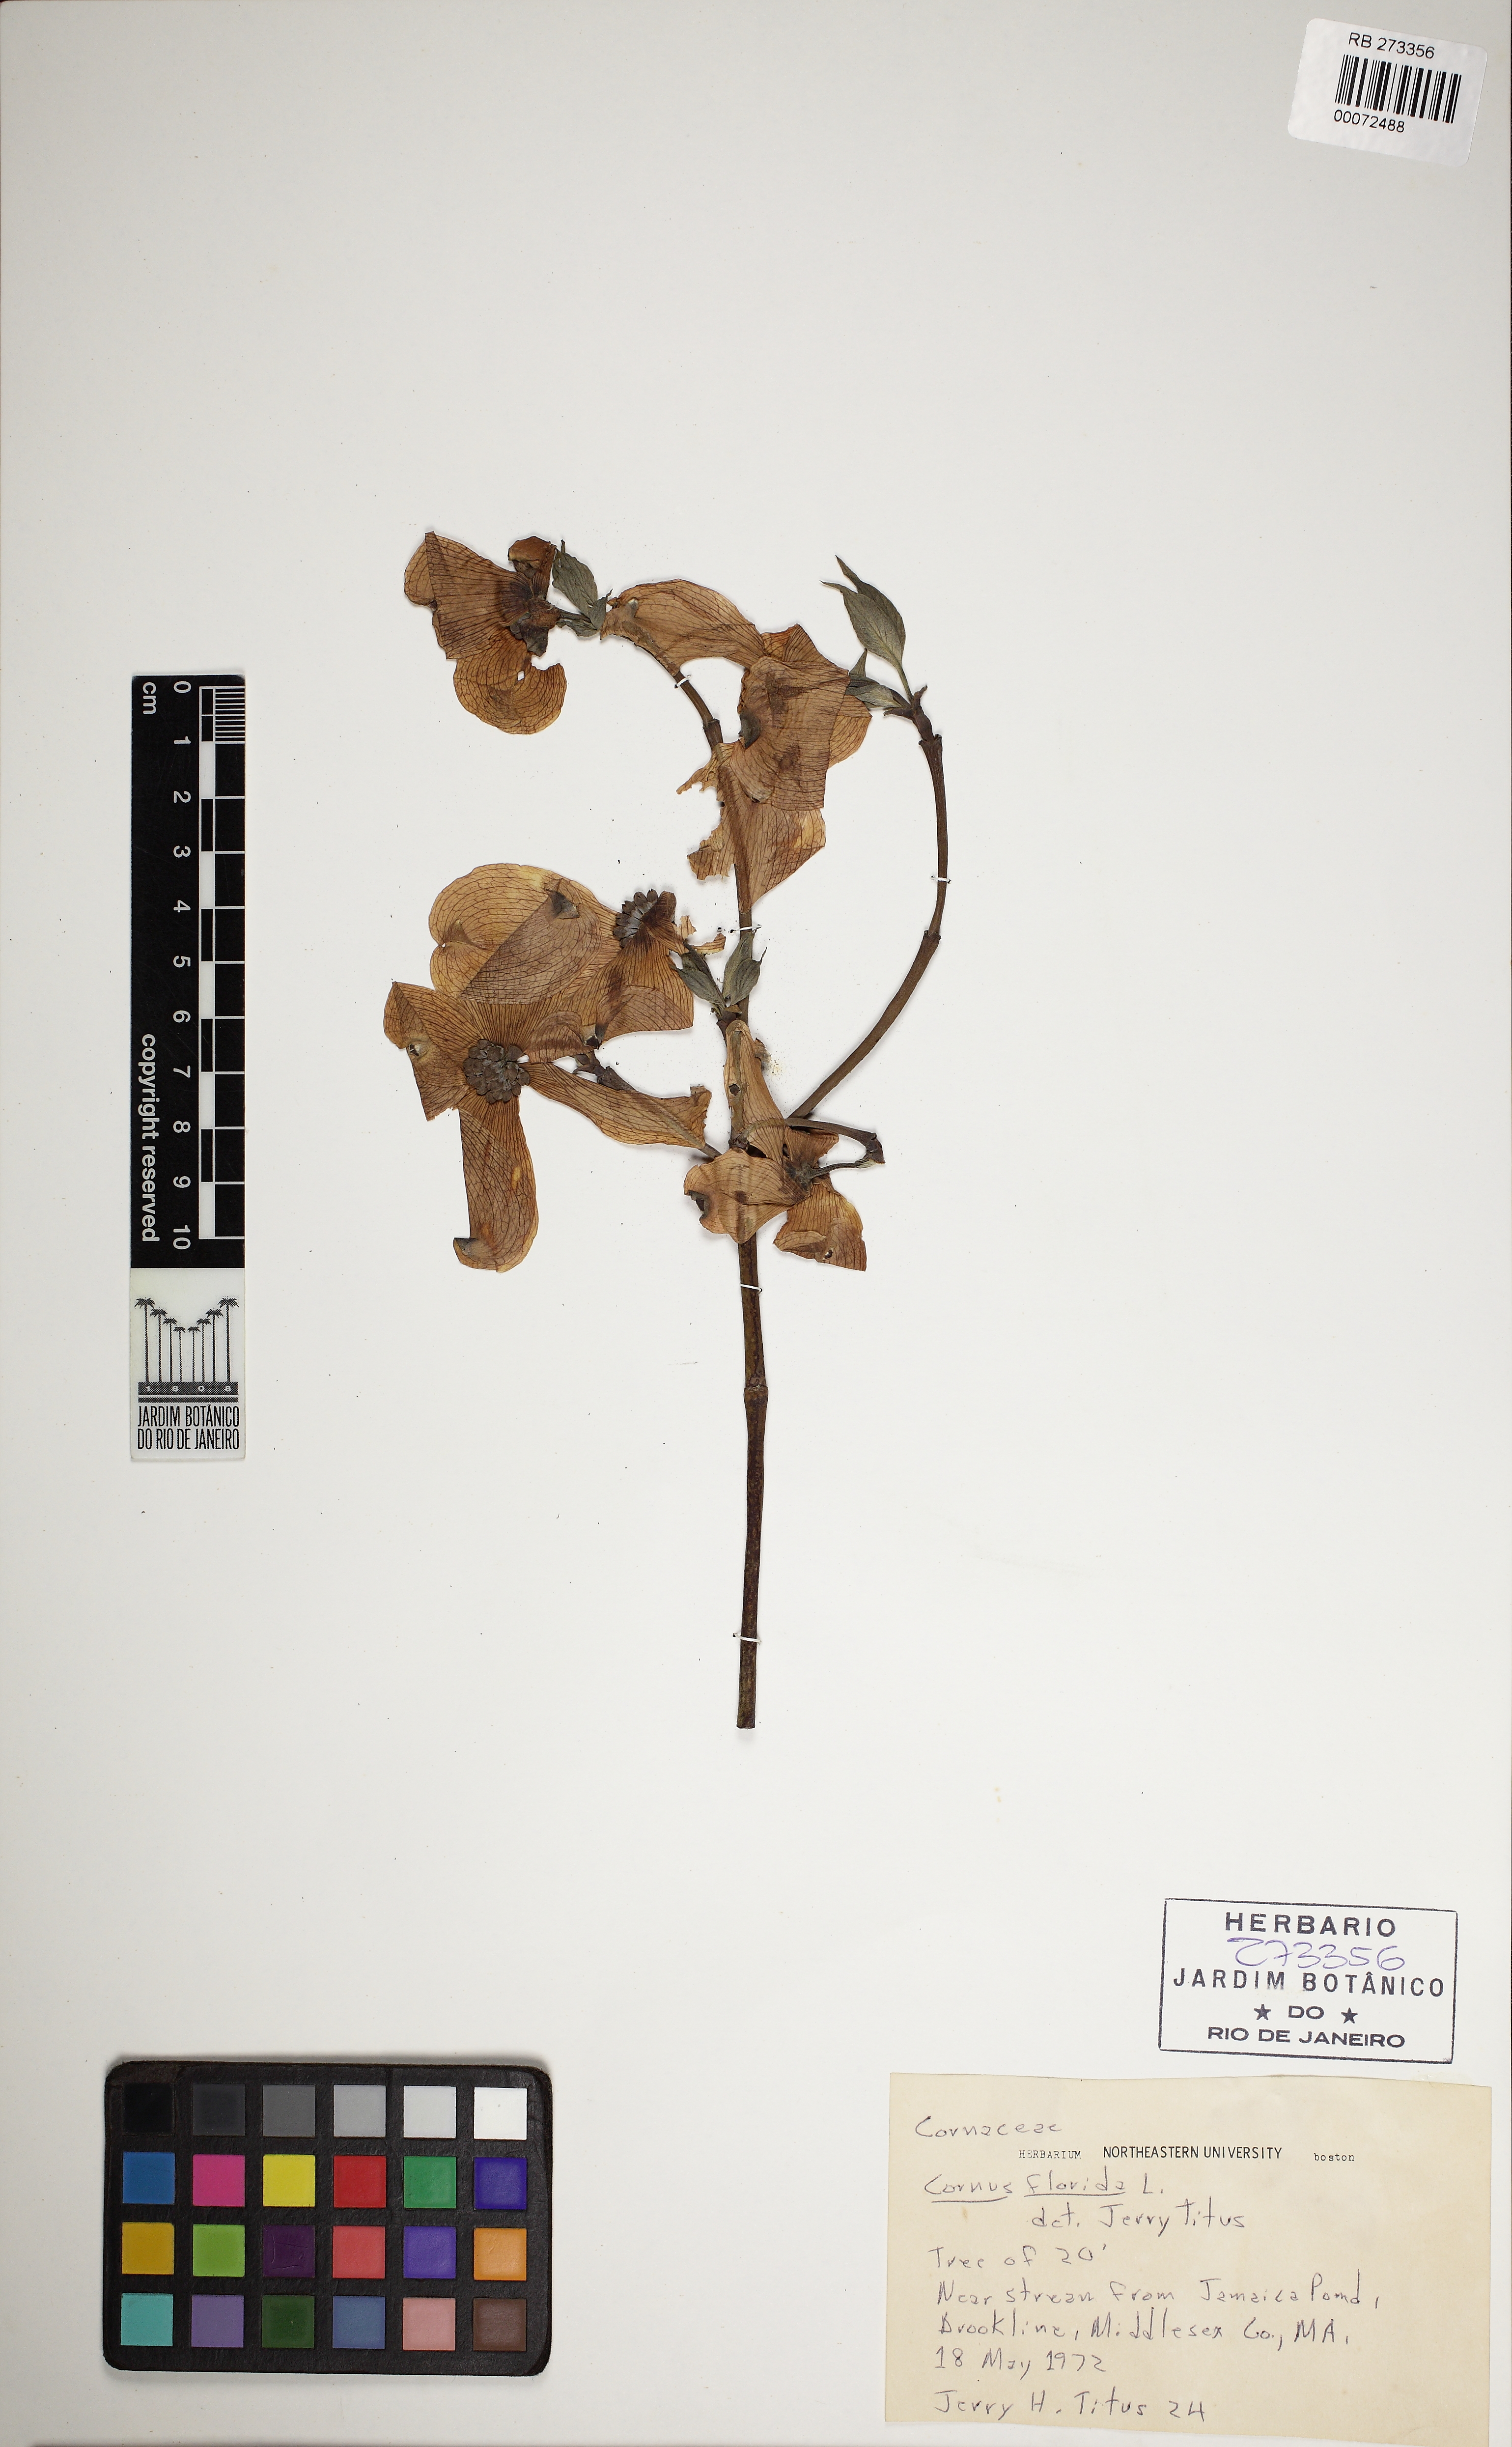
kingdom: Plantae
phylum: Tracheophyta
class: Magnoliopsida
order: Cornales
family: Cornaceae
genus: Cornus
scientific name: Cornus florida
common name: Flowering dogwood
